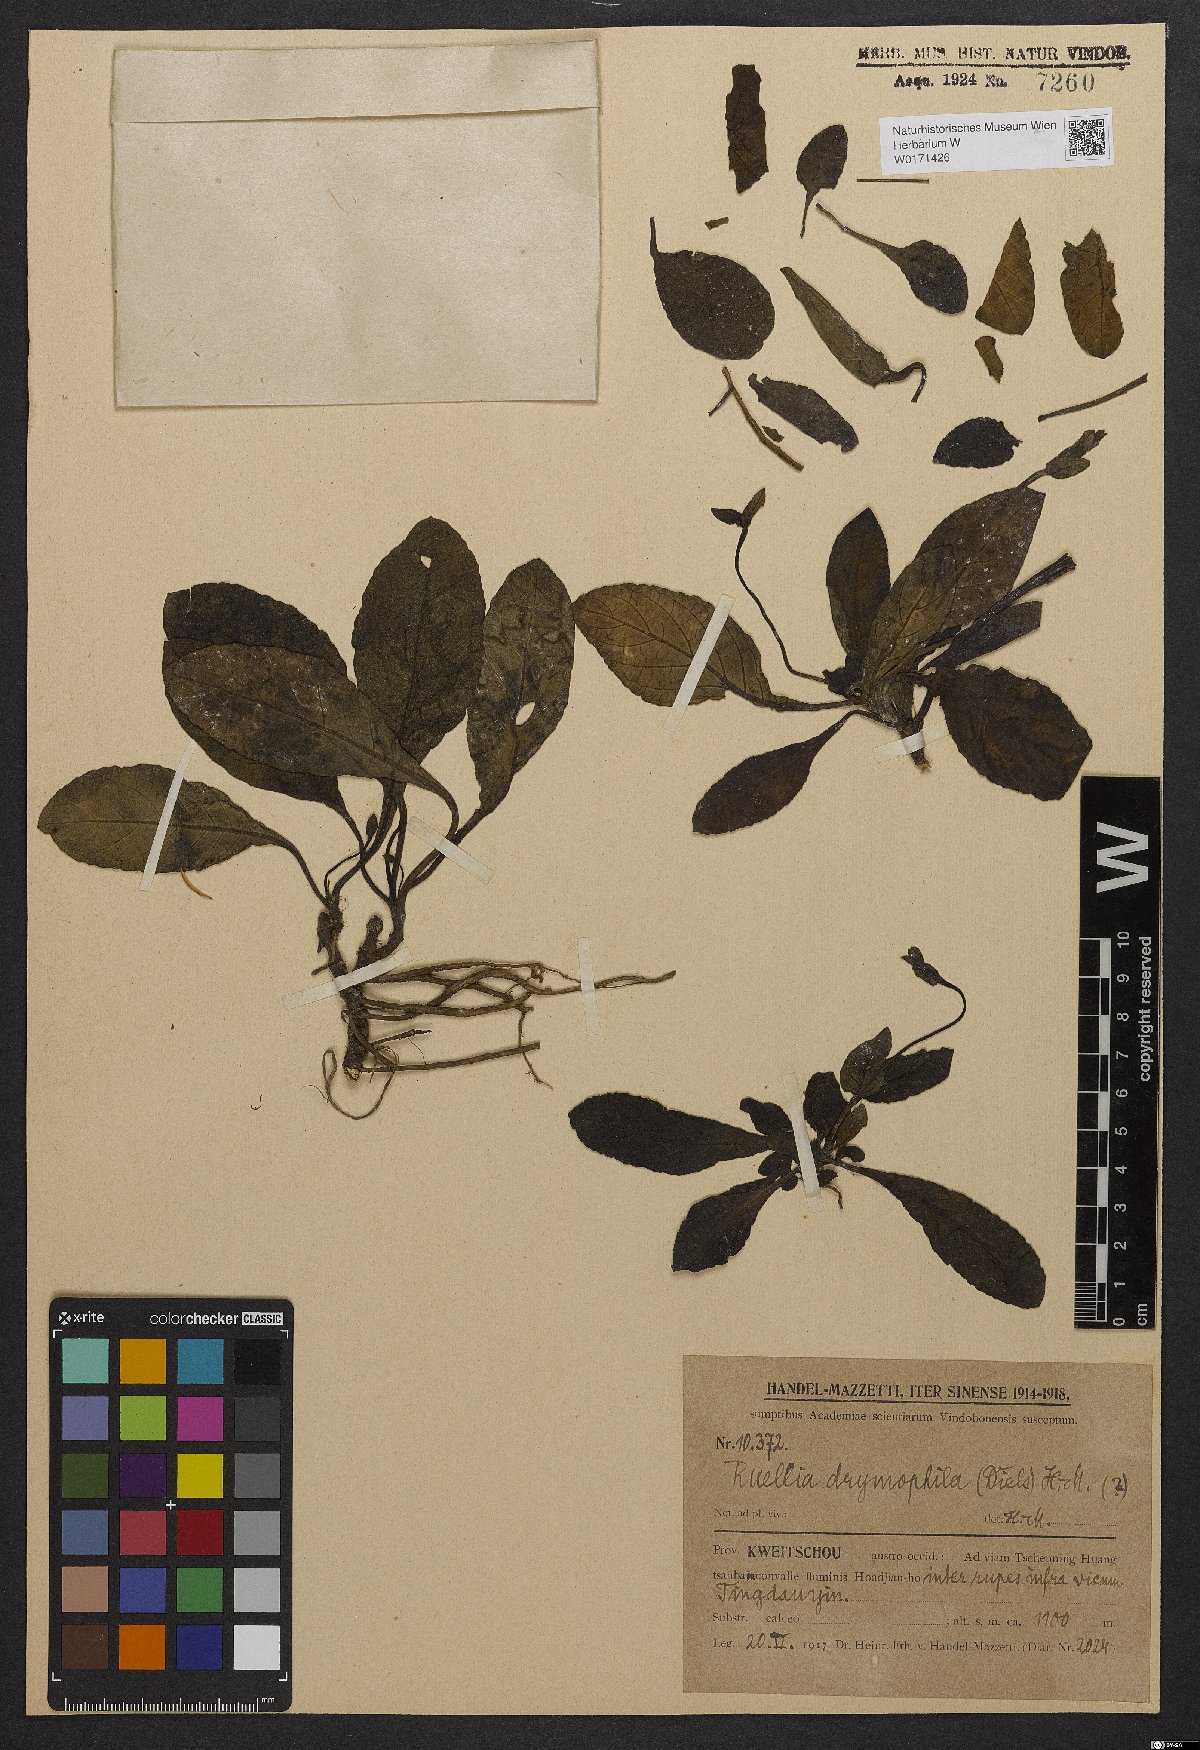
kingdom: Plantae
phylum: Tracheophyta
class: Magnoliopsida
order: Lamiales
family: Acanthaceae
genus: Pararuellia
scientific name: Pararuellia delavayana
